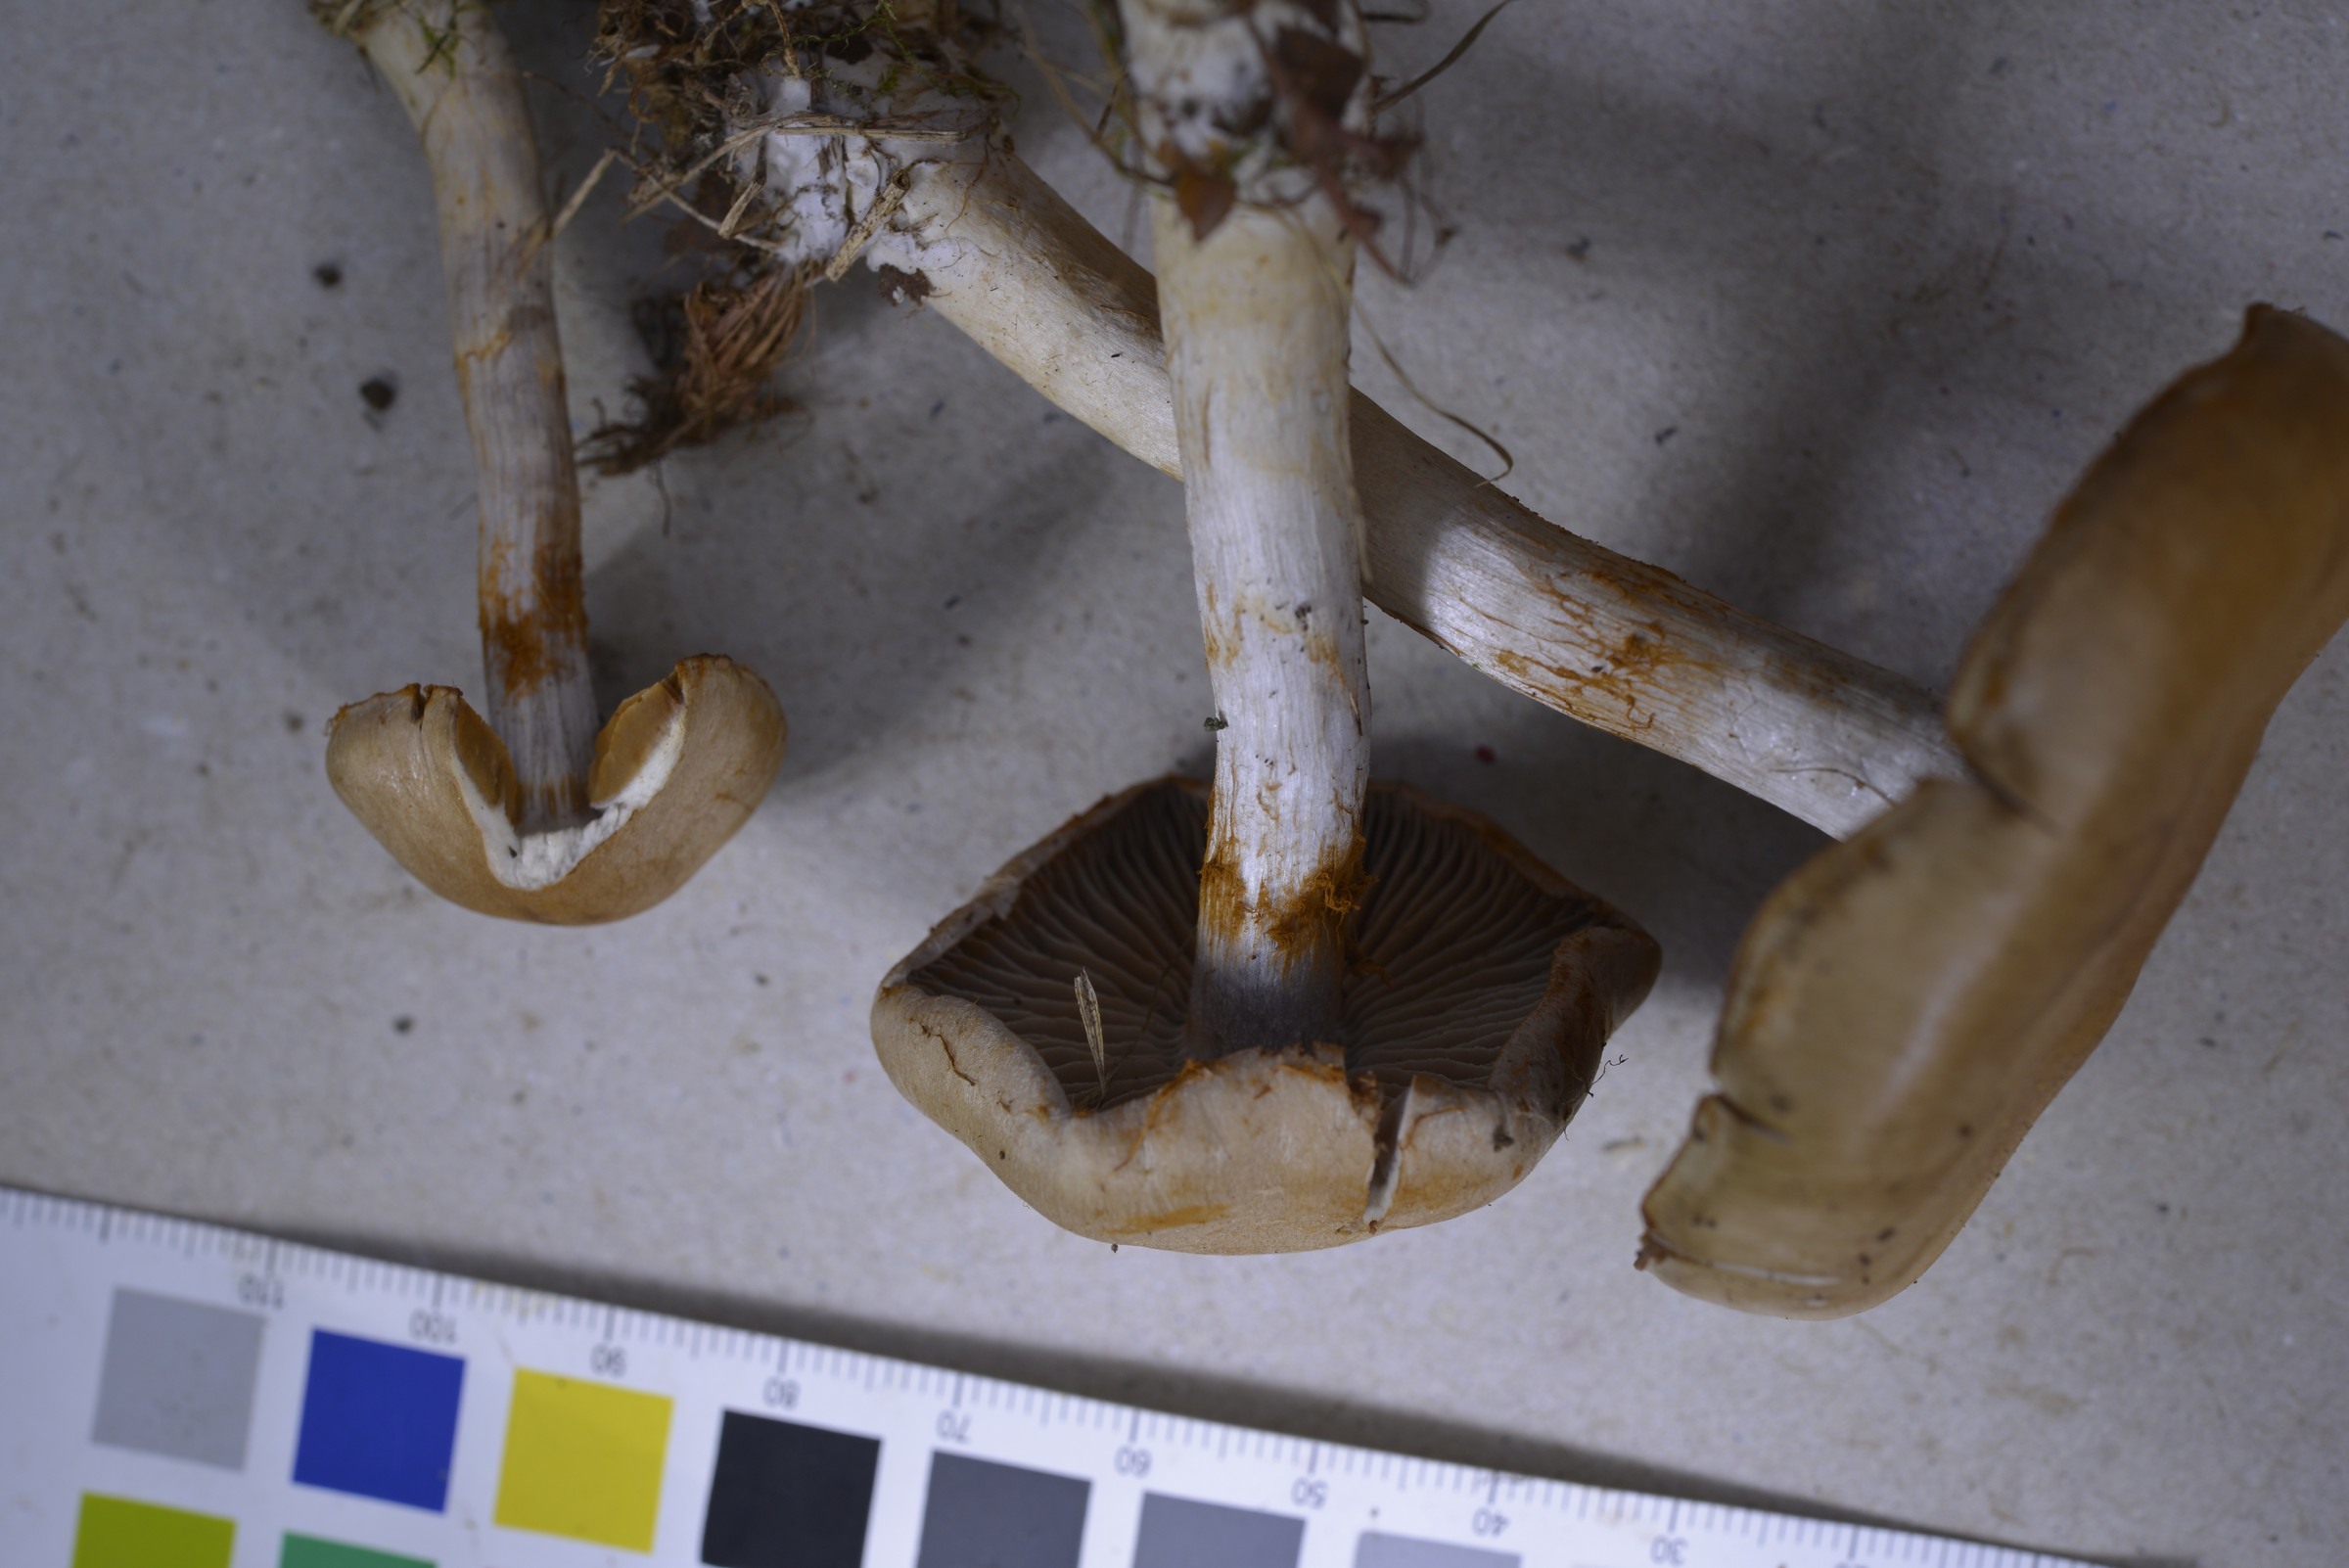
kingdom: Fungi
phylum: Basidiomycota
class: Agaricomycetes
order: Agaricales
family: Cortinariaceae
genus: Cortinarius
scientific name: Cortinarius anomalus
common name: Variable webcap
